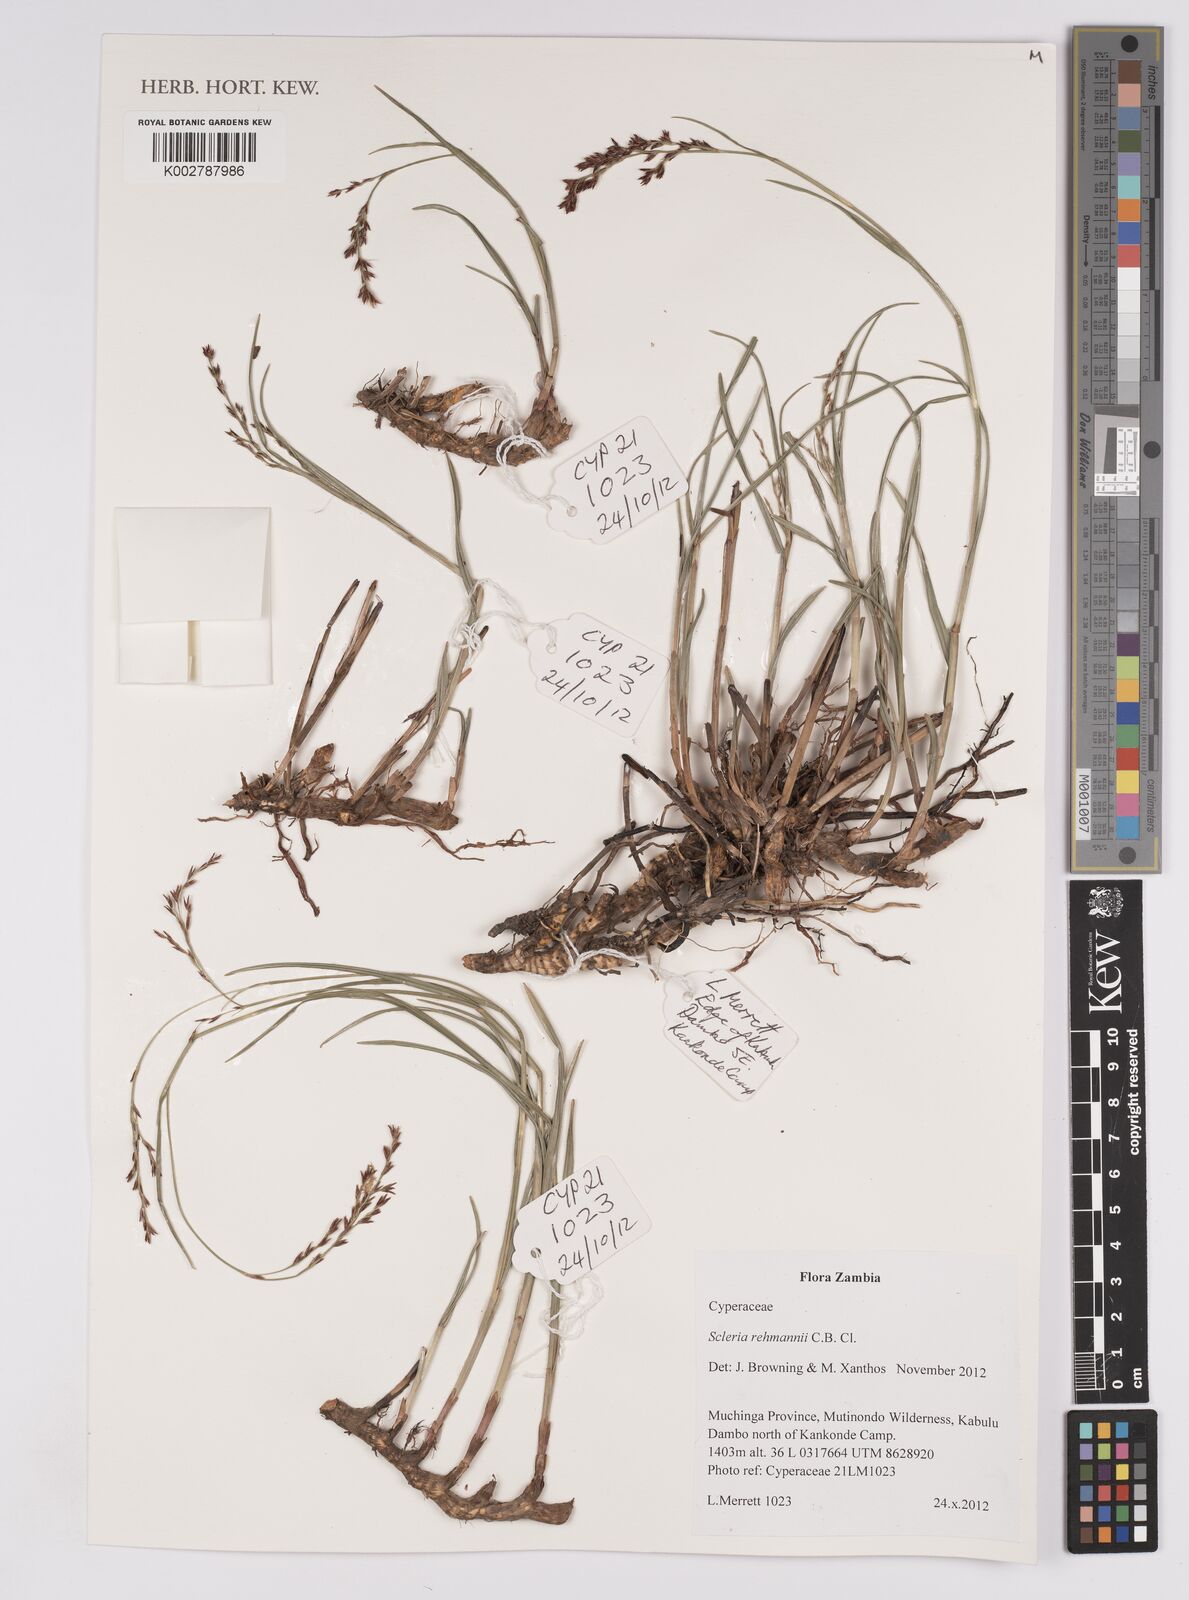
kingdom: Plantae
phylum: Tracheophyta
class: Liliopsida
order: Poales
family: Cyperaceae
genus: Scleria
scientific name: Scleria rehmannii
